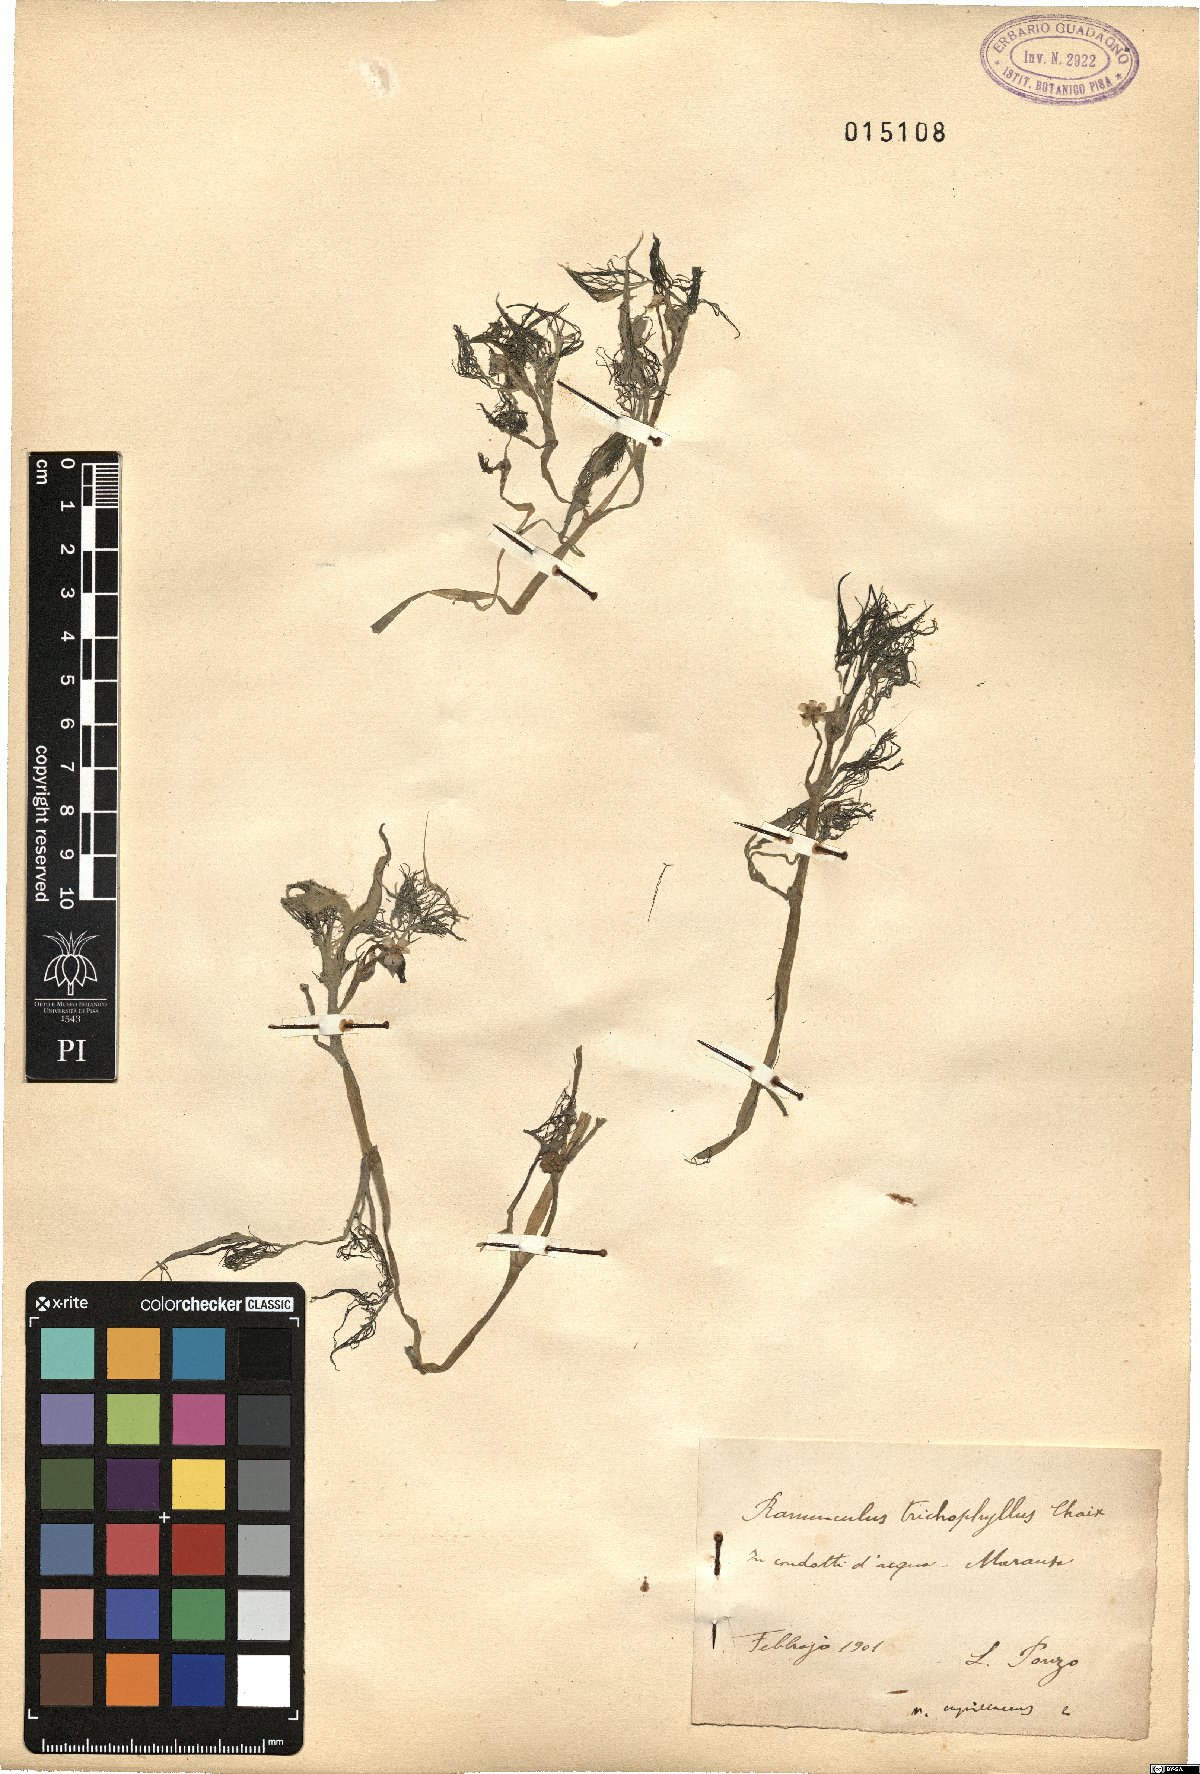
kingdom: Plantae
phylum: Tracheophyta
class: Magnoliopsida
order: Ranunculales
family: Ranunculaceae
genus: Ranunculus
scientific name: Ranunculus trichophyllus
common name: Thread-leaved water-crowfoot
